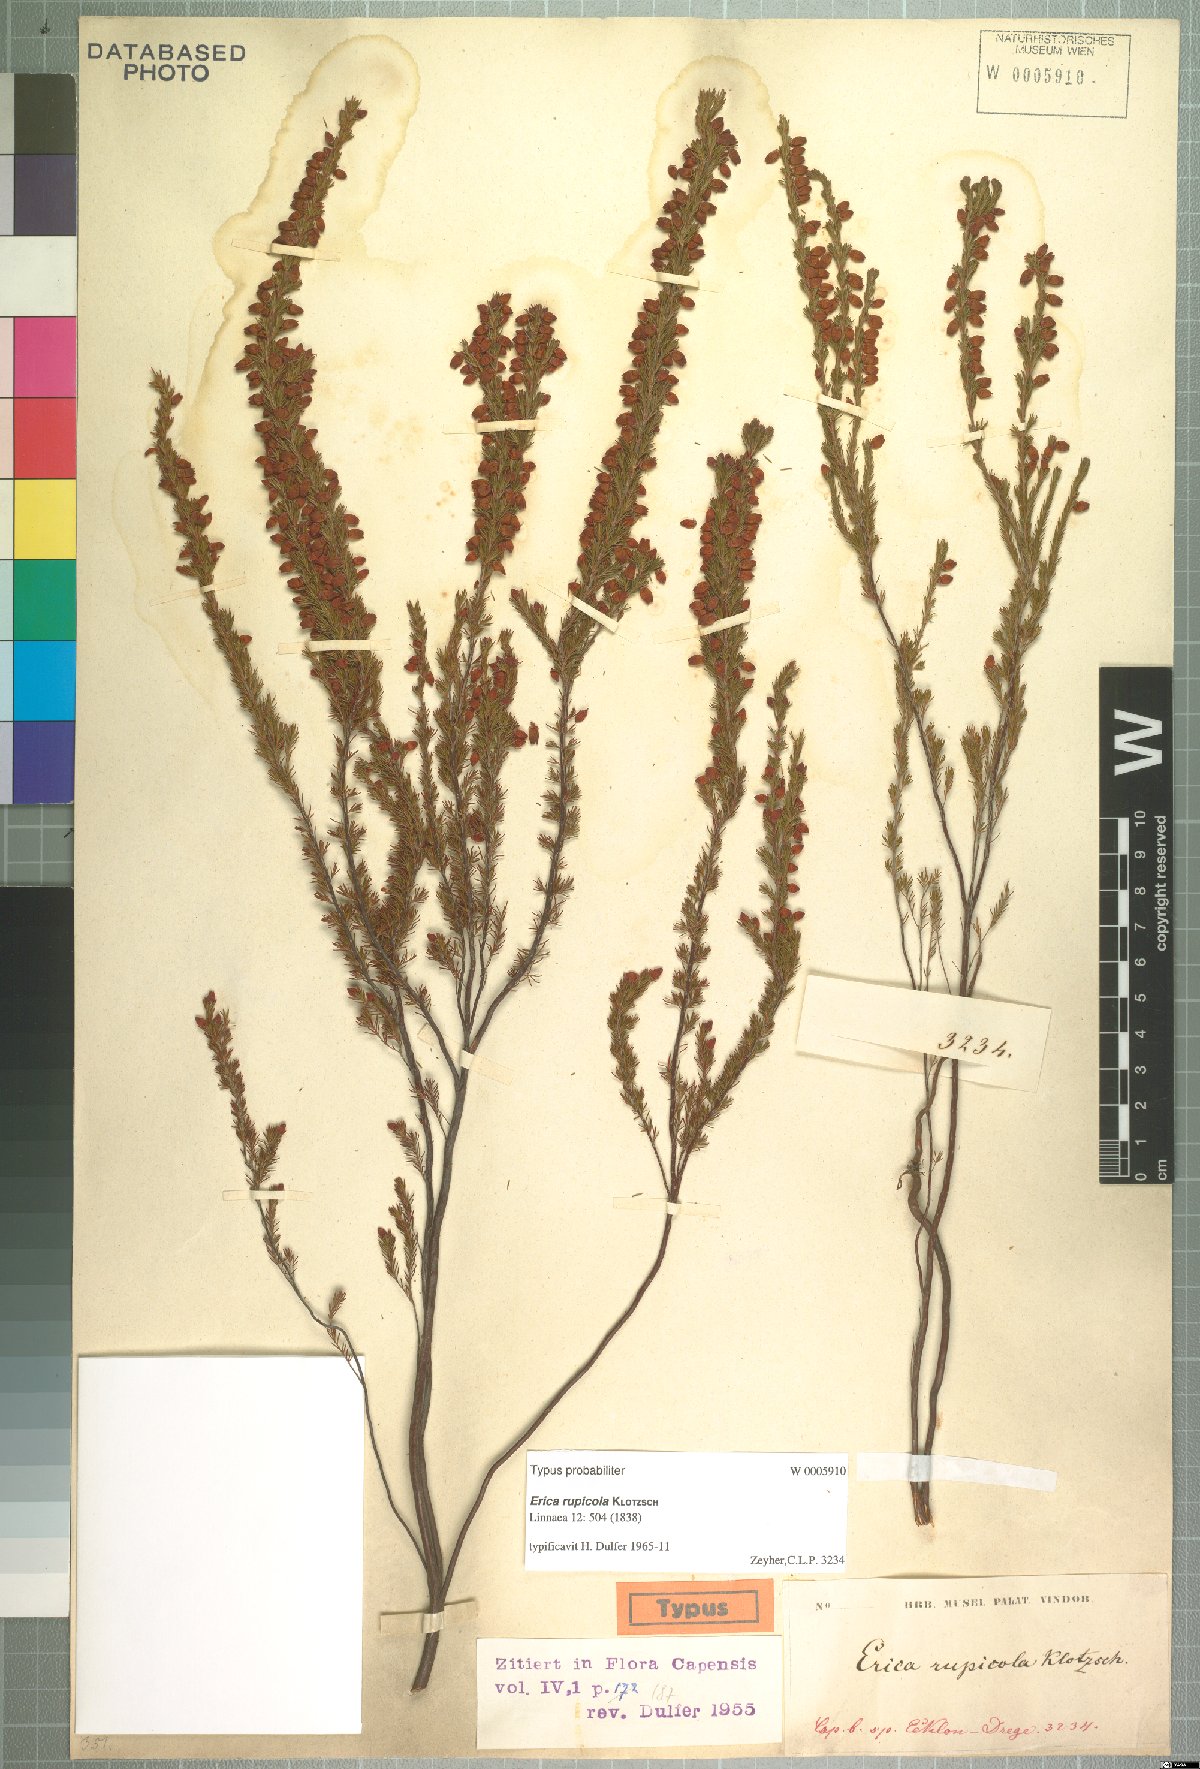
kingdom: Plantae
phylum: Tracheophyta
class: Magnoliopsida
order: Ericales
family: Ericaceae
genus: Erica
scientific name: Erica rupicola
